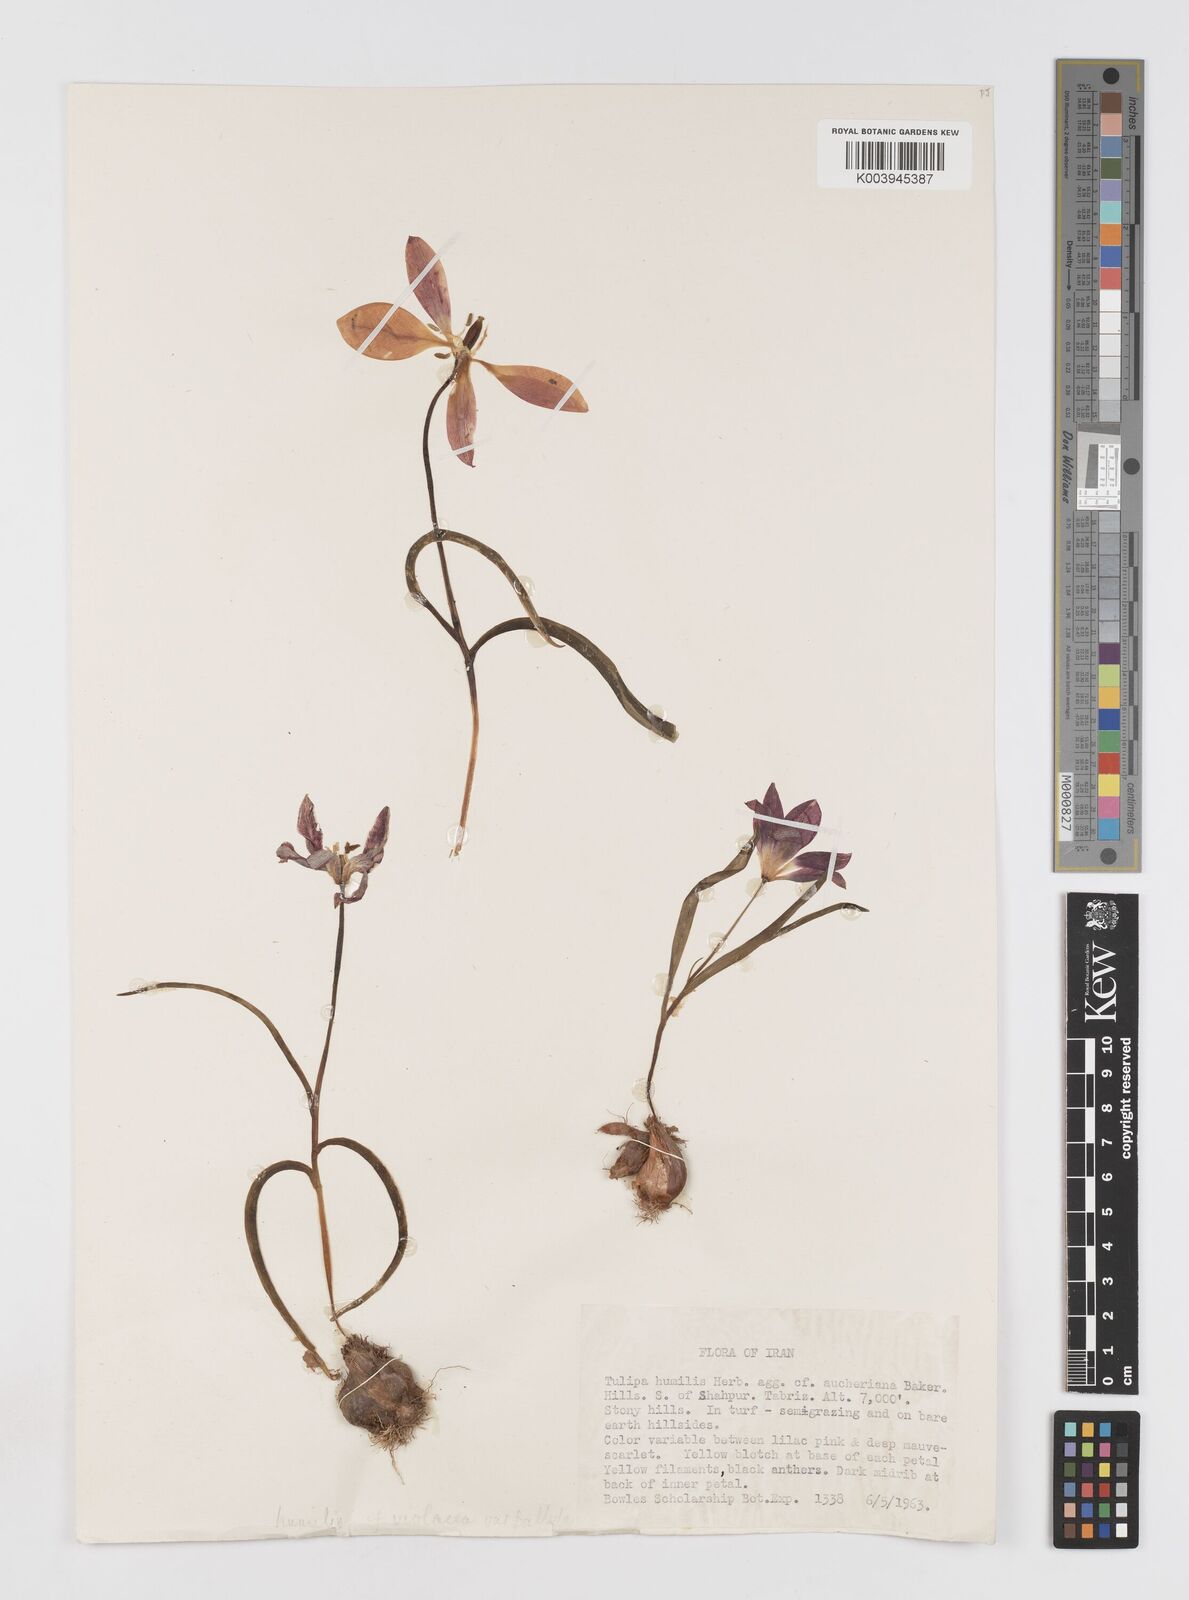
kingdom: Plantae
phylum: Tracheophyta
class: Liliopsida
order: Liliales
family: Liliaceae
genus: Tulipa
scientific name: Tulipa humilis
